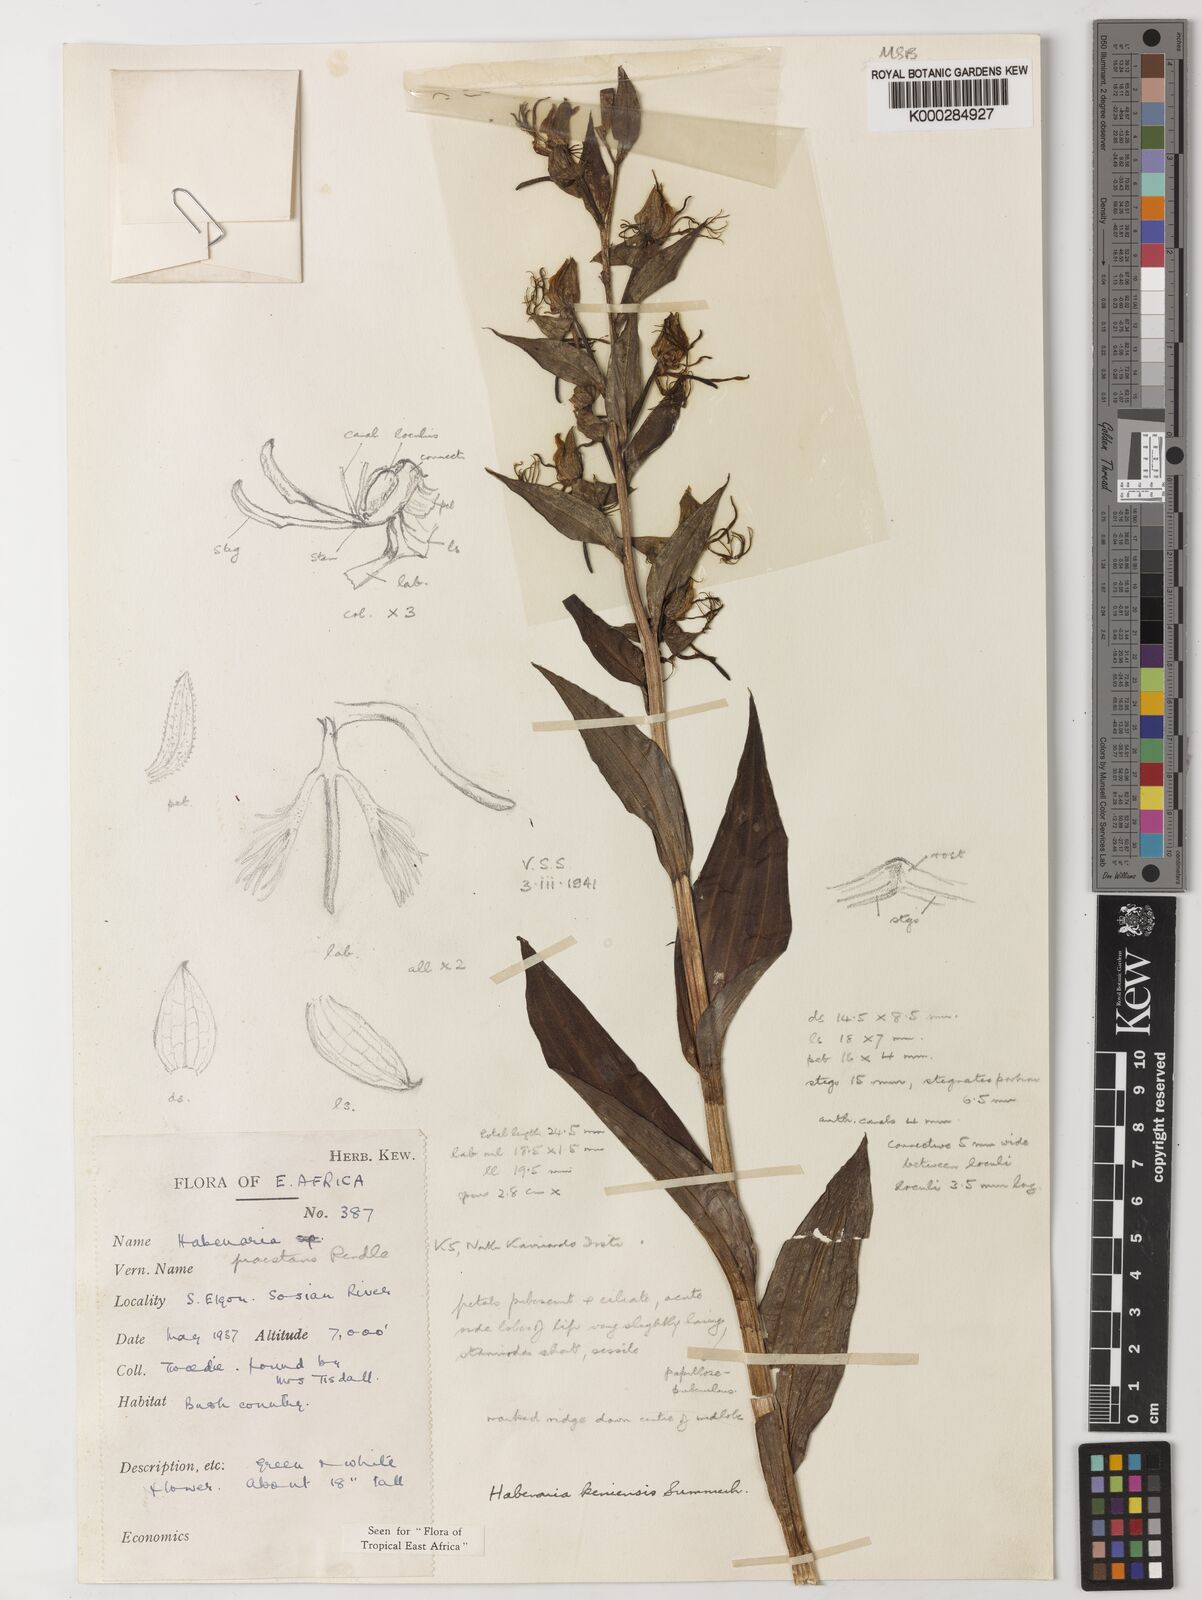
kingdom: Plantae
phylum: Tracheophyta
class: Liliopsida
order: Asparagales
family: Orchidaceae
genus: Habenaria
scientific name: Habenaria keniensis
